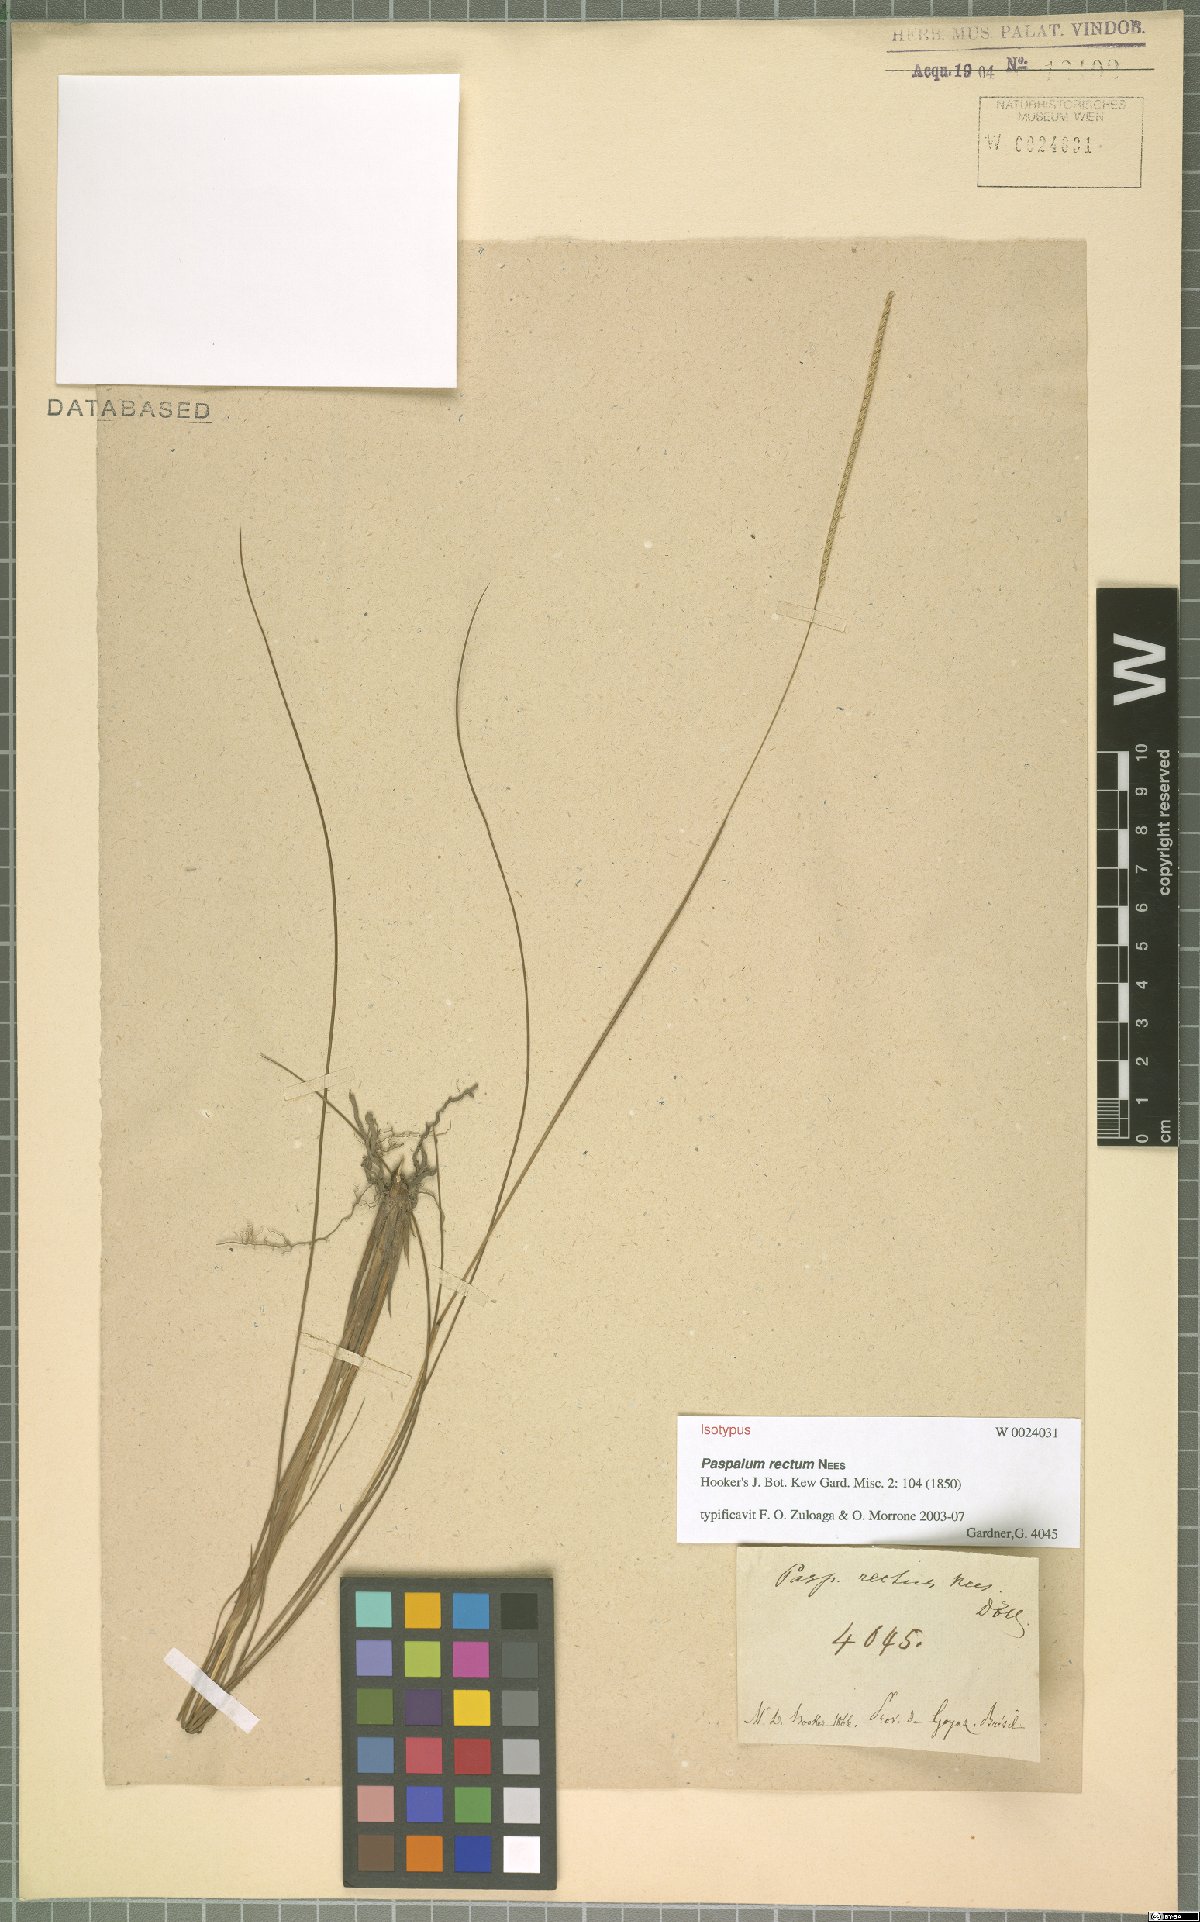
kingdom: Plantae
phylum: Tracheophyta
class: Liliopsida
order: Poales
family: Poaceae
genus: Paspalum
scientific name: Paspalum rectum
